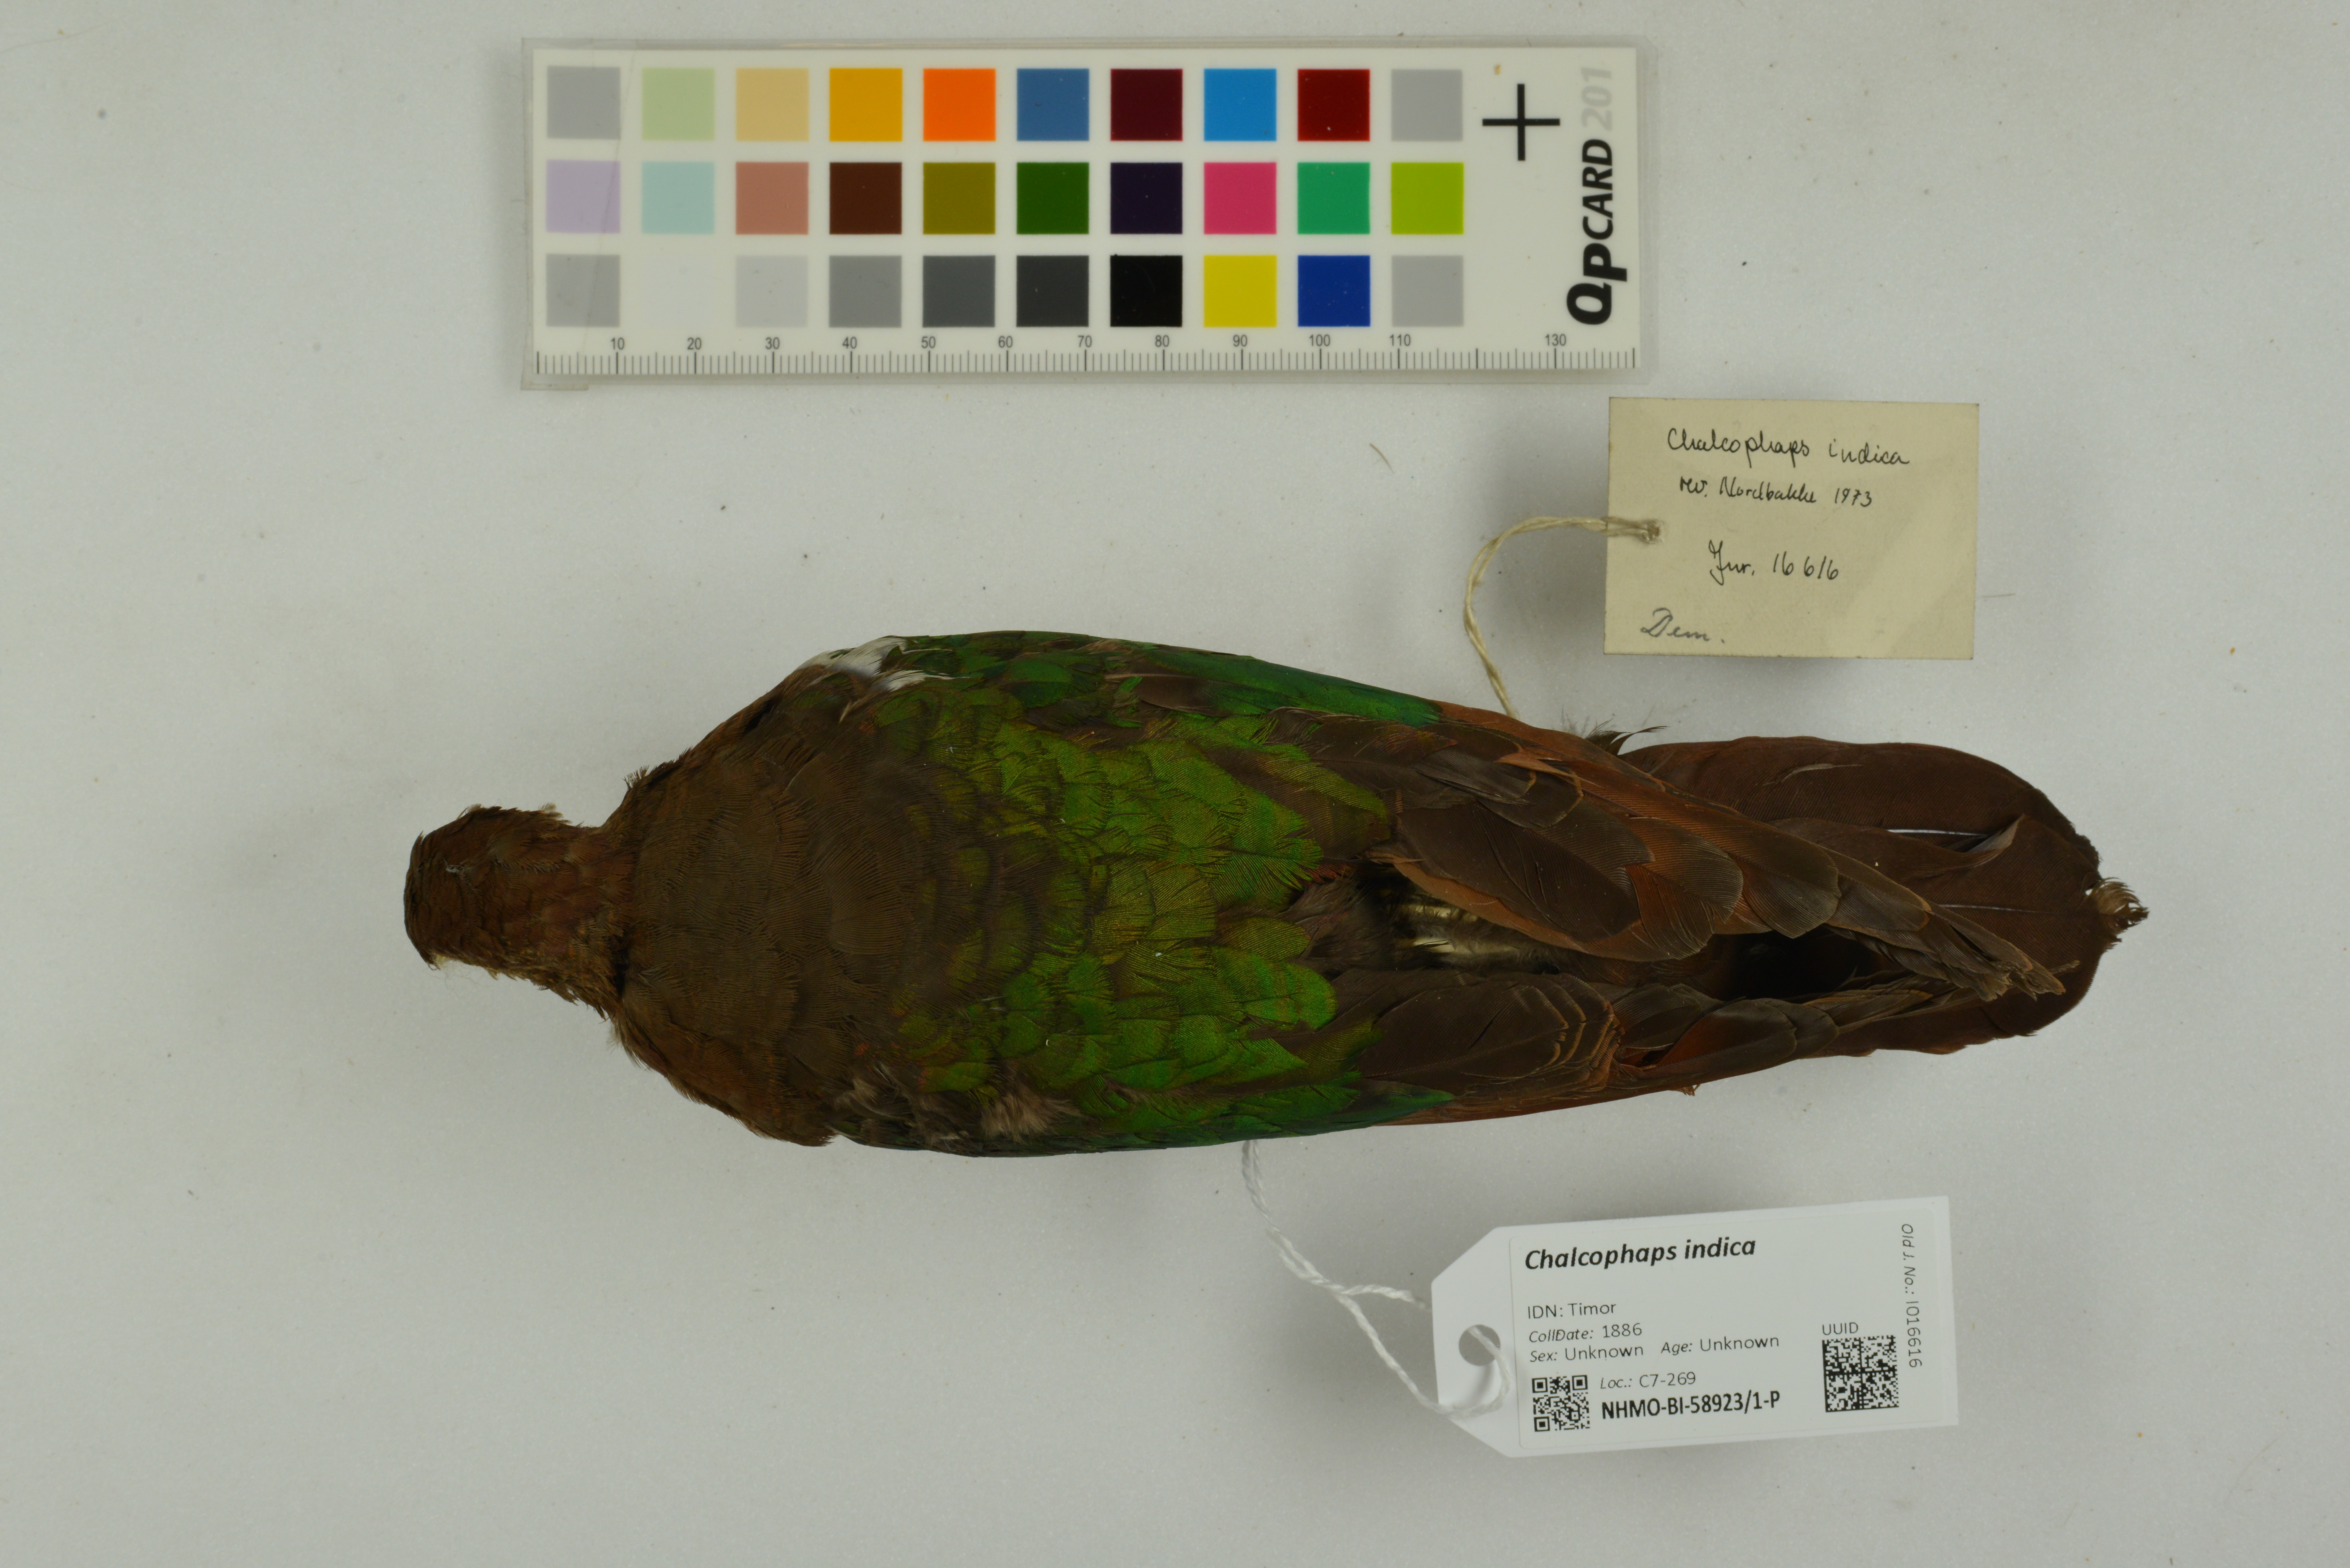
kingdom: Animalia
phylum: Chordata
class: Aves
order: Columbiformes
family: Columbidae
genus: Chalcophaps
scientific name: Chalcophaps longirostris
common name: Pacific emerald dove
